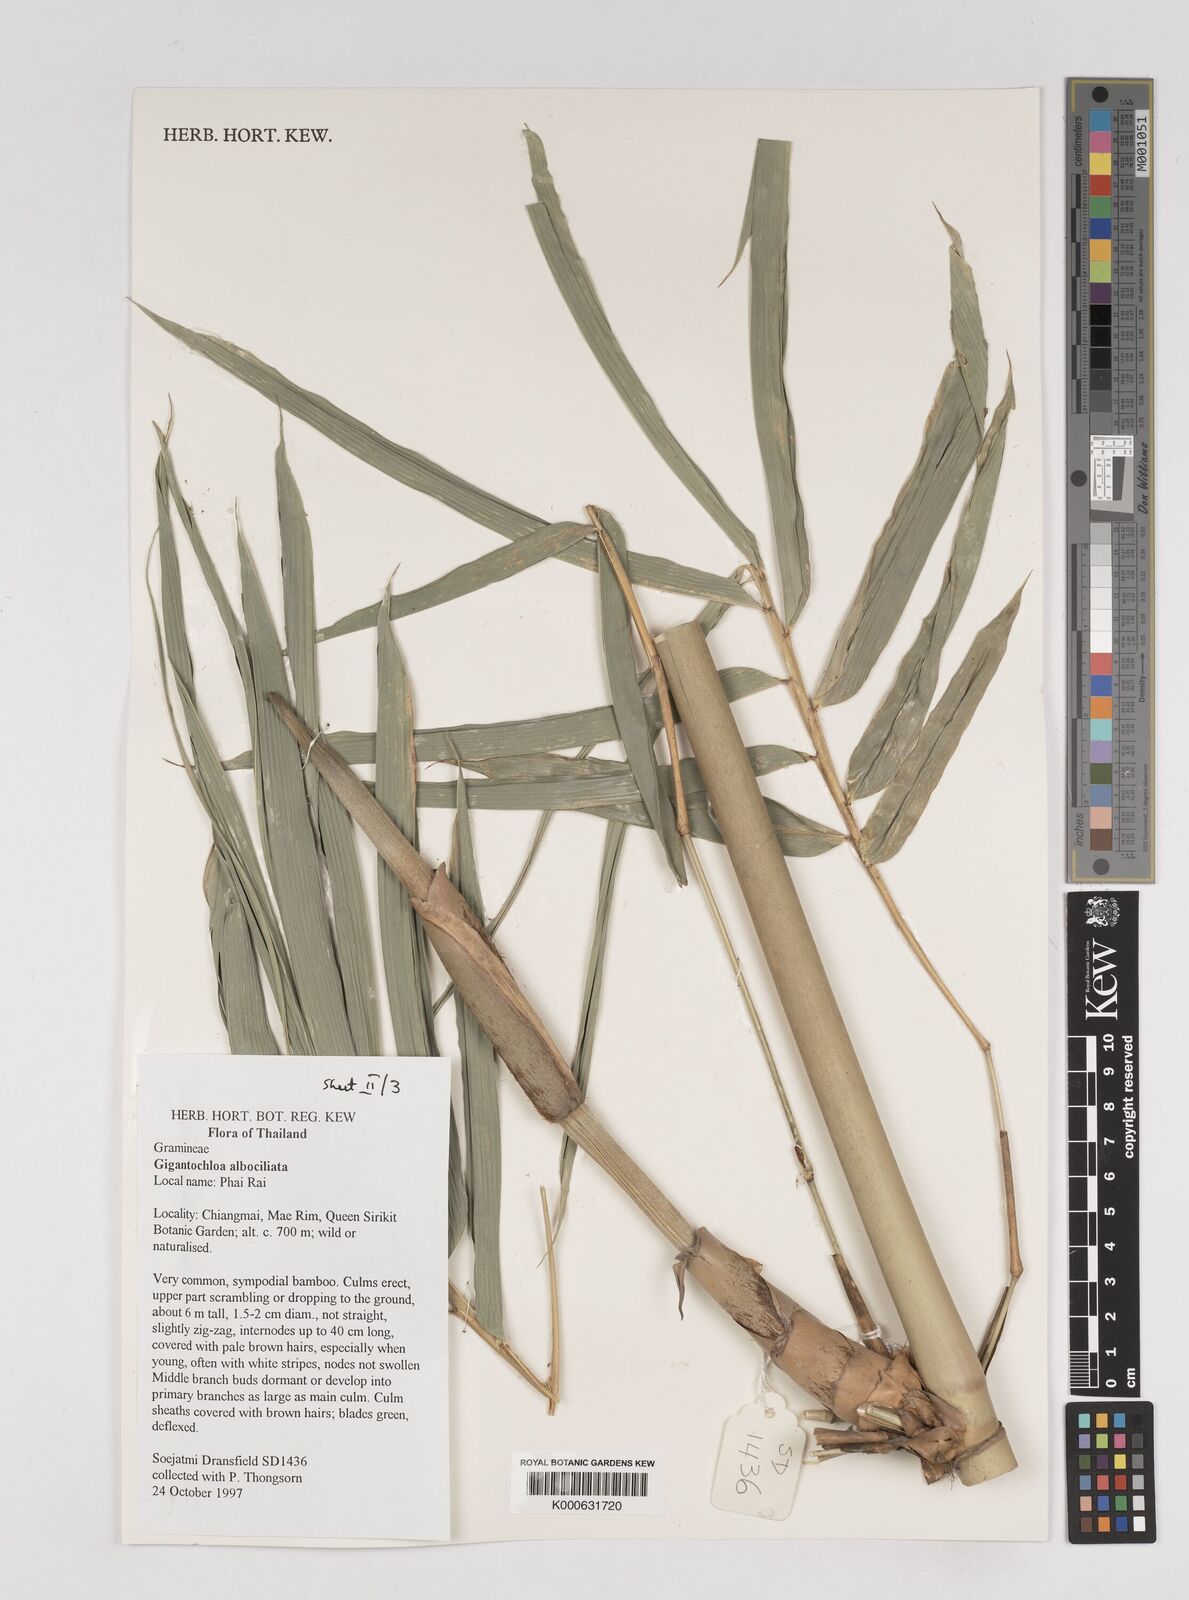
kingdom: Plantae
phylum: Tracheophyta
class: Liliopsida
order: Poales
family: Poaceae
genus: Gigantochloa
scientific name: Gigantochloa albociliata
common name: White-fringe gigantochloa
